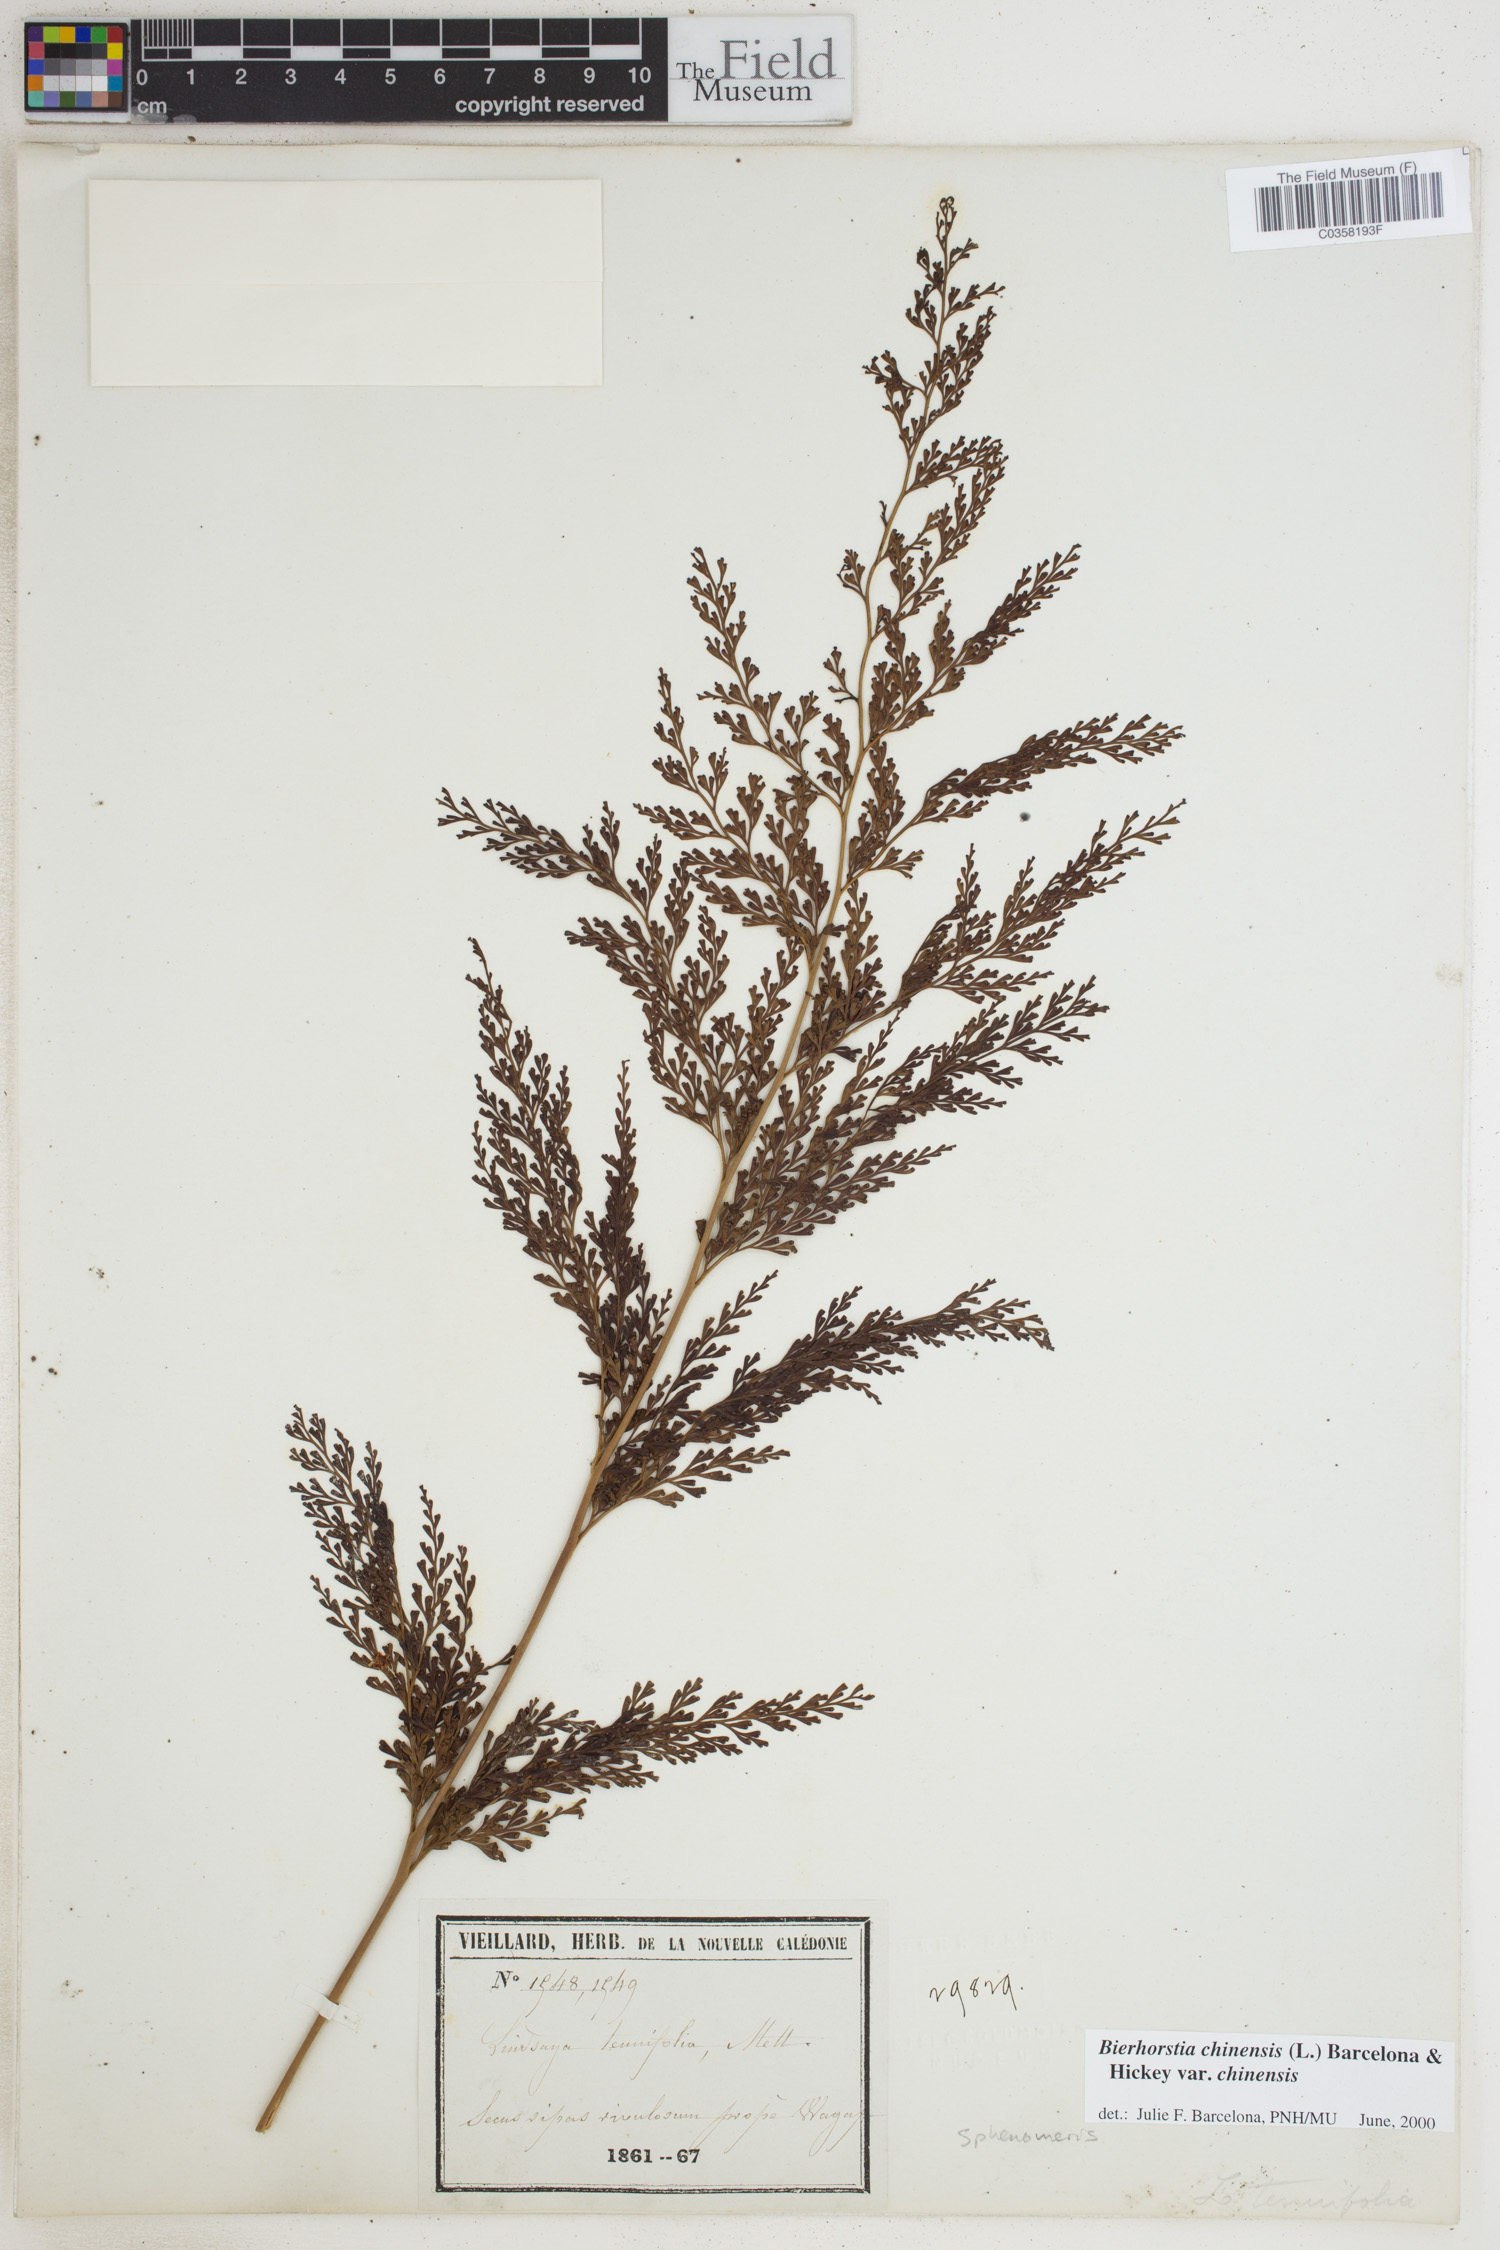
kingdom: Plantae
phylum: Tracheophyta
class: Polypodiopsida
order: Polypodiales
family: Lindsaeaceae
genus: Odontosoria
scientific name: Odontosoria chinensis
